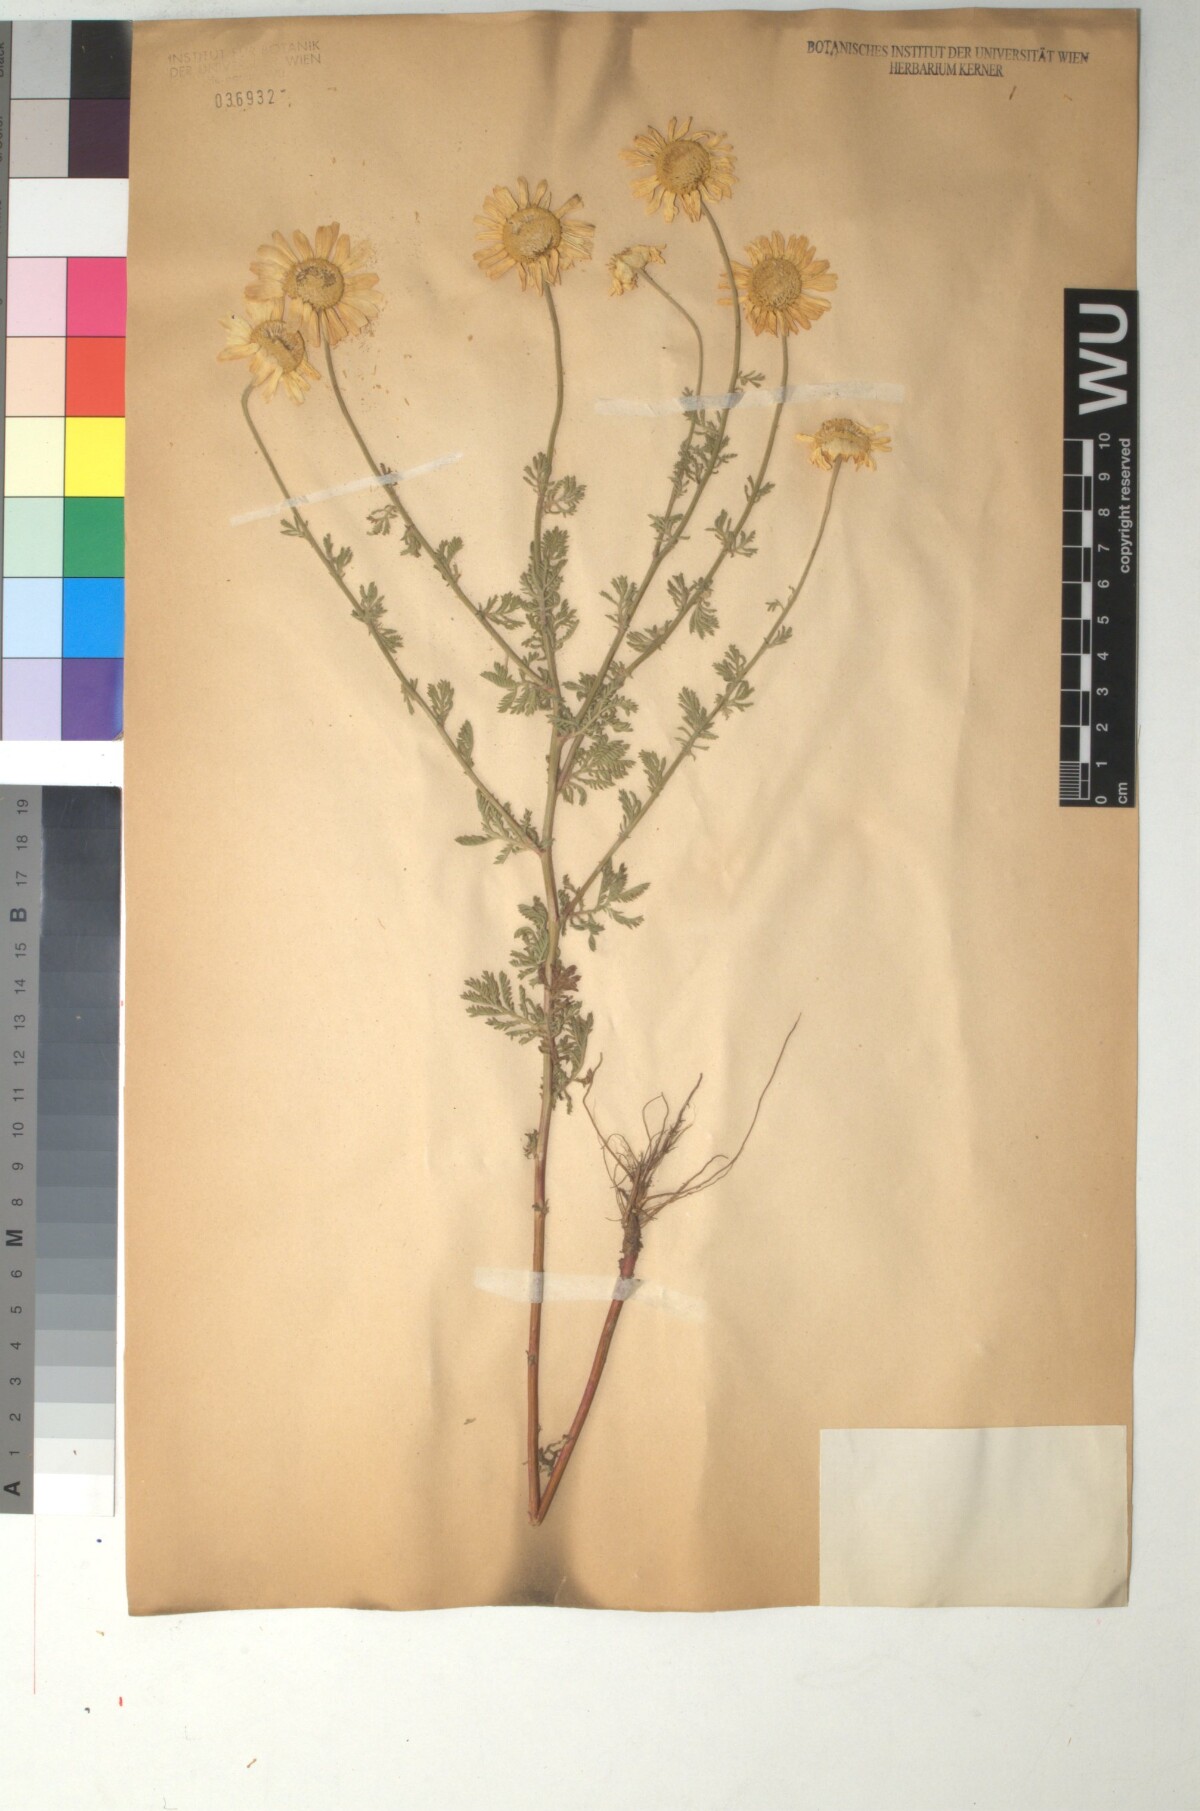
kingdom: Plantae
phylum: Tracheophyta
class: Magnoliopsida
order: Asterales
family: Asteraceae
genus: Cota
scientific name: Cota triumfetti
